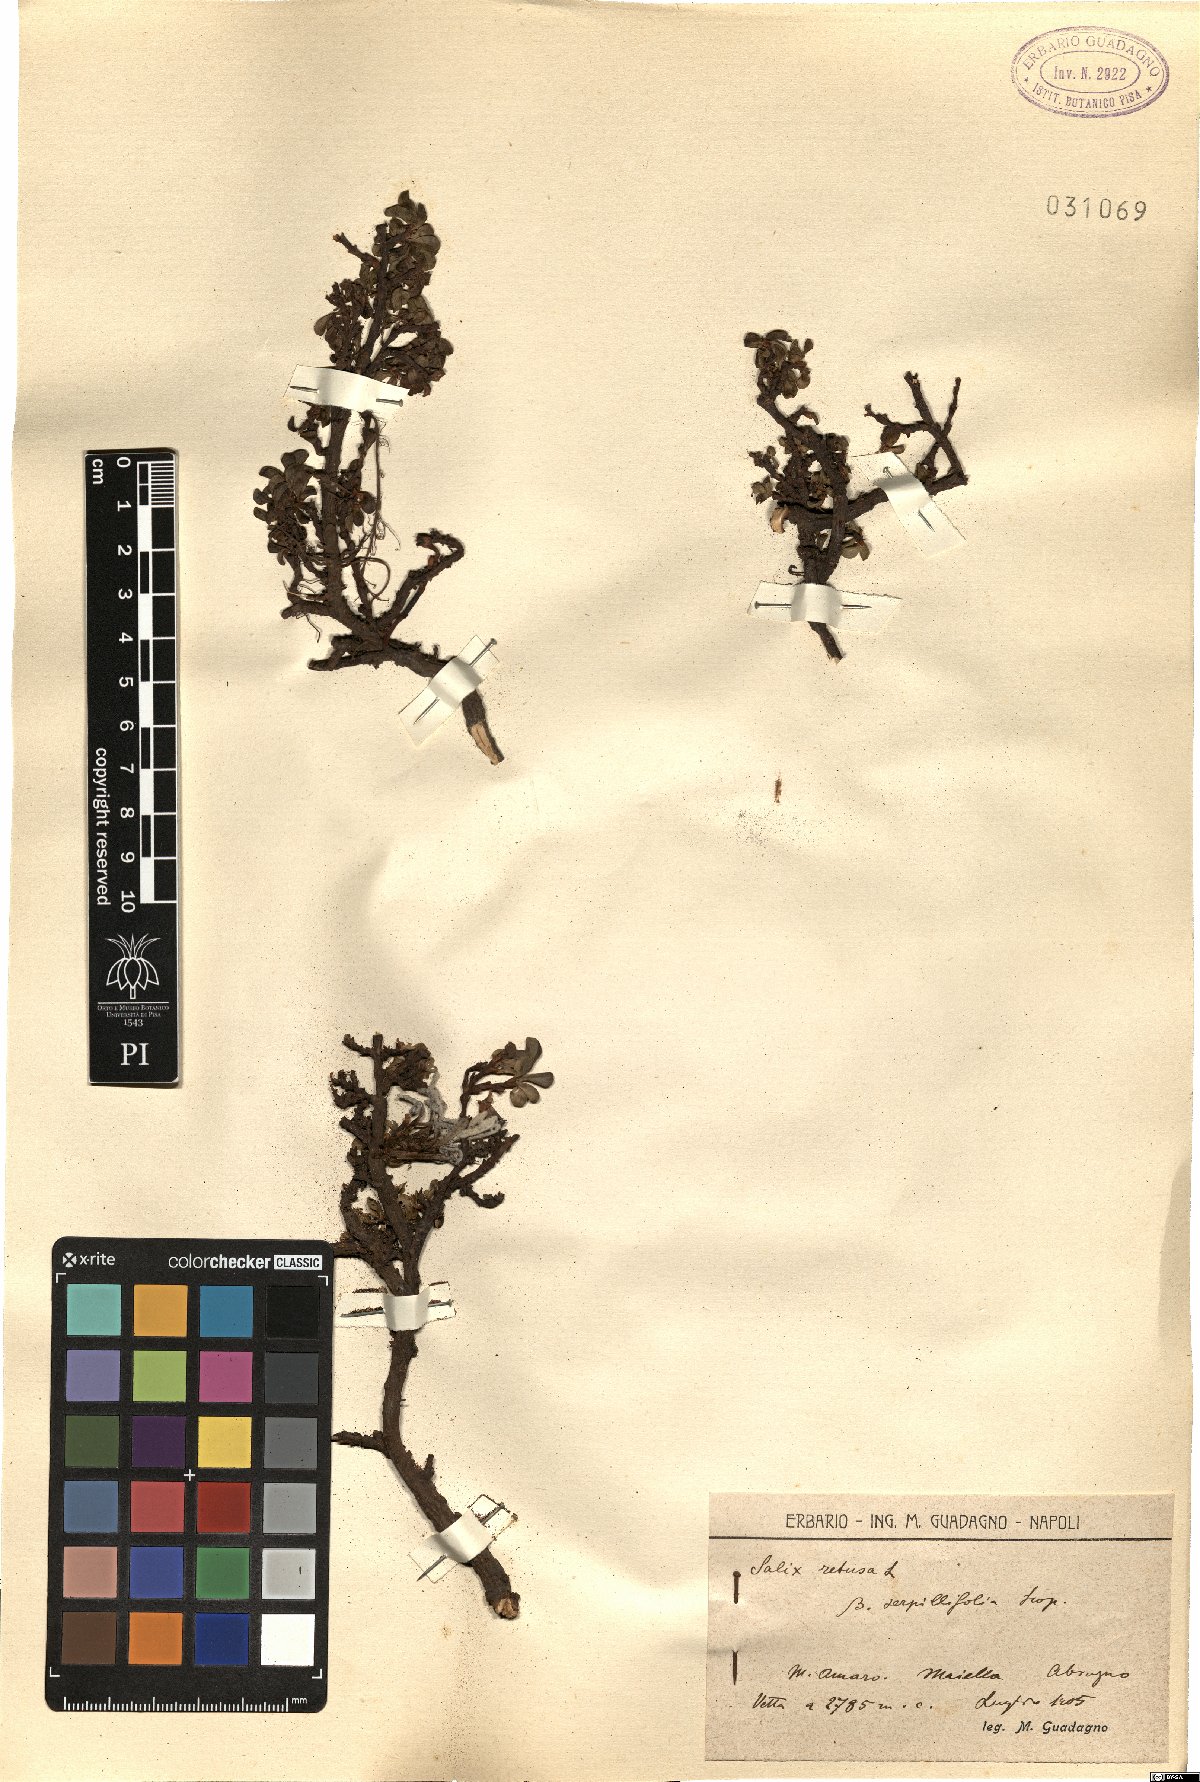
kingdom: Plantae
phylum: Tracheophyta
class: Magnoliopsida
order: Malpighiales
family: Salicaceae
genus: Salix
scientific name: Salix serpillifolia
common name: Thyme-leaf willow
